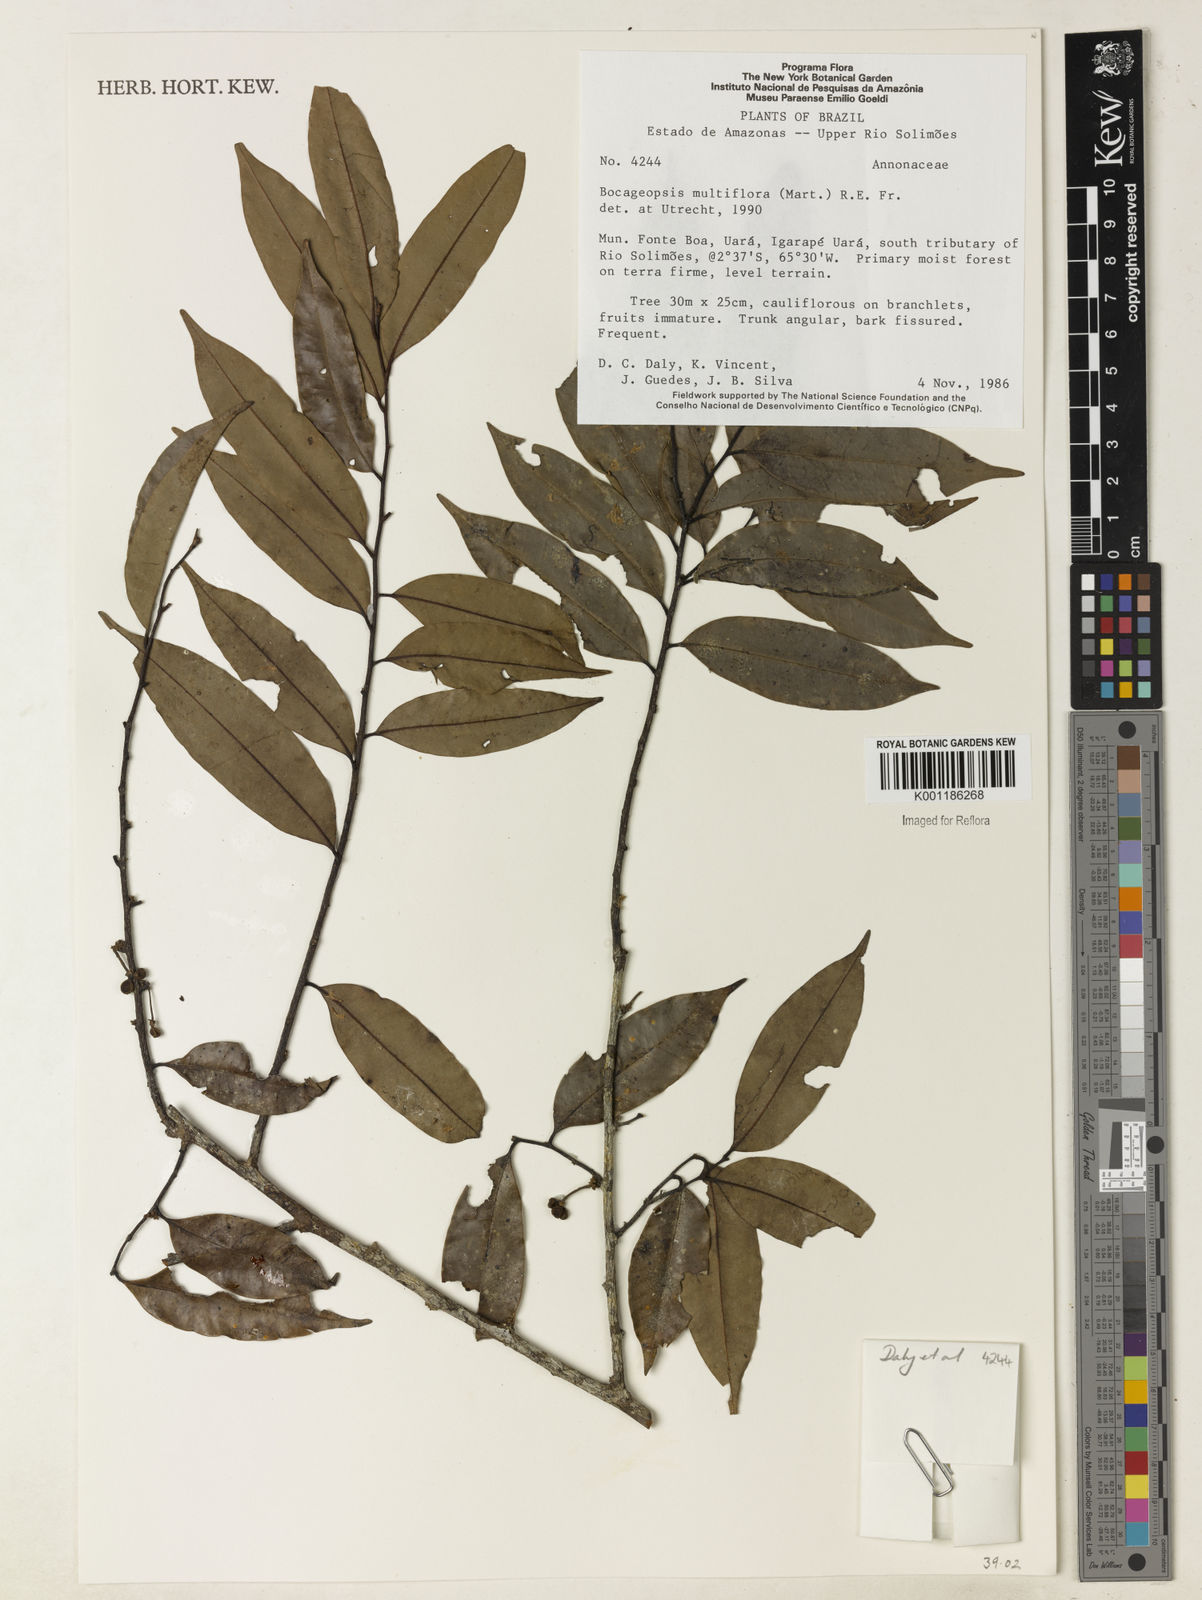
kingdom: Plantae
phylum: Tracheophyta
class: Magnoliopsida
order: Magnoliales
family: Annonaceae
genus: Bocageopsis
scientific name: Bocageopsis multiflora
